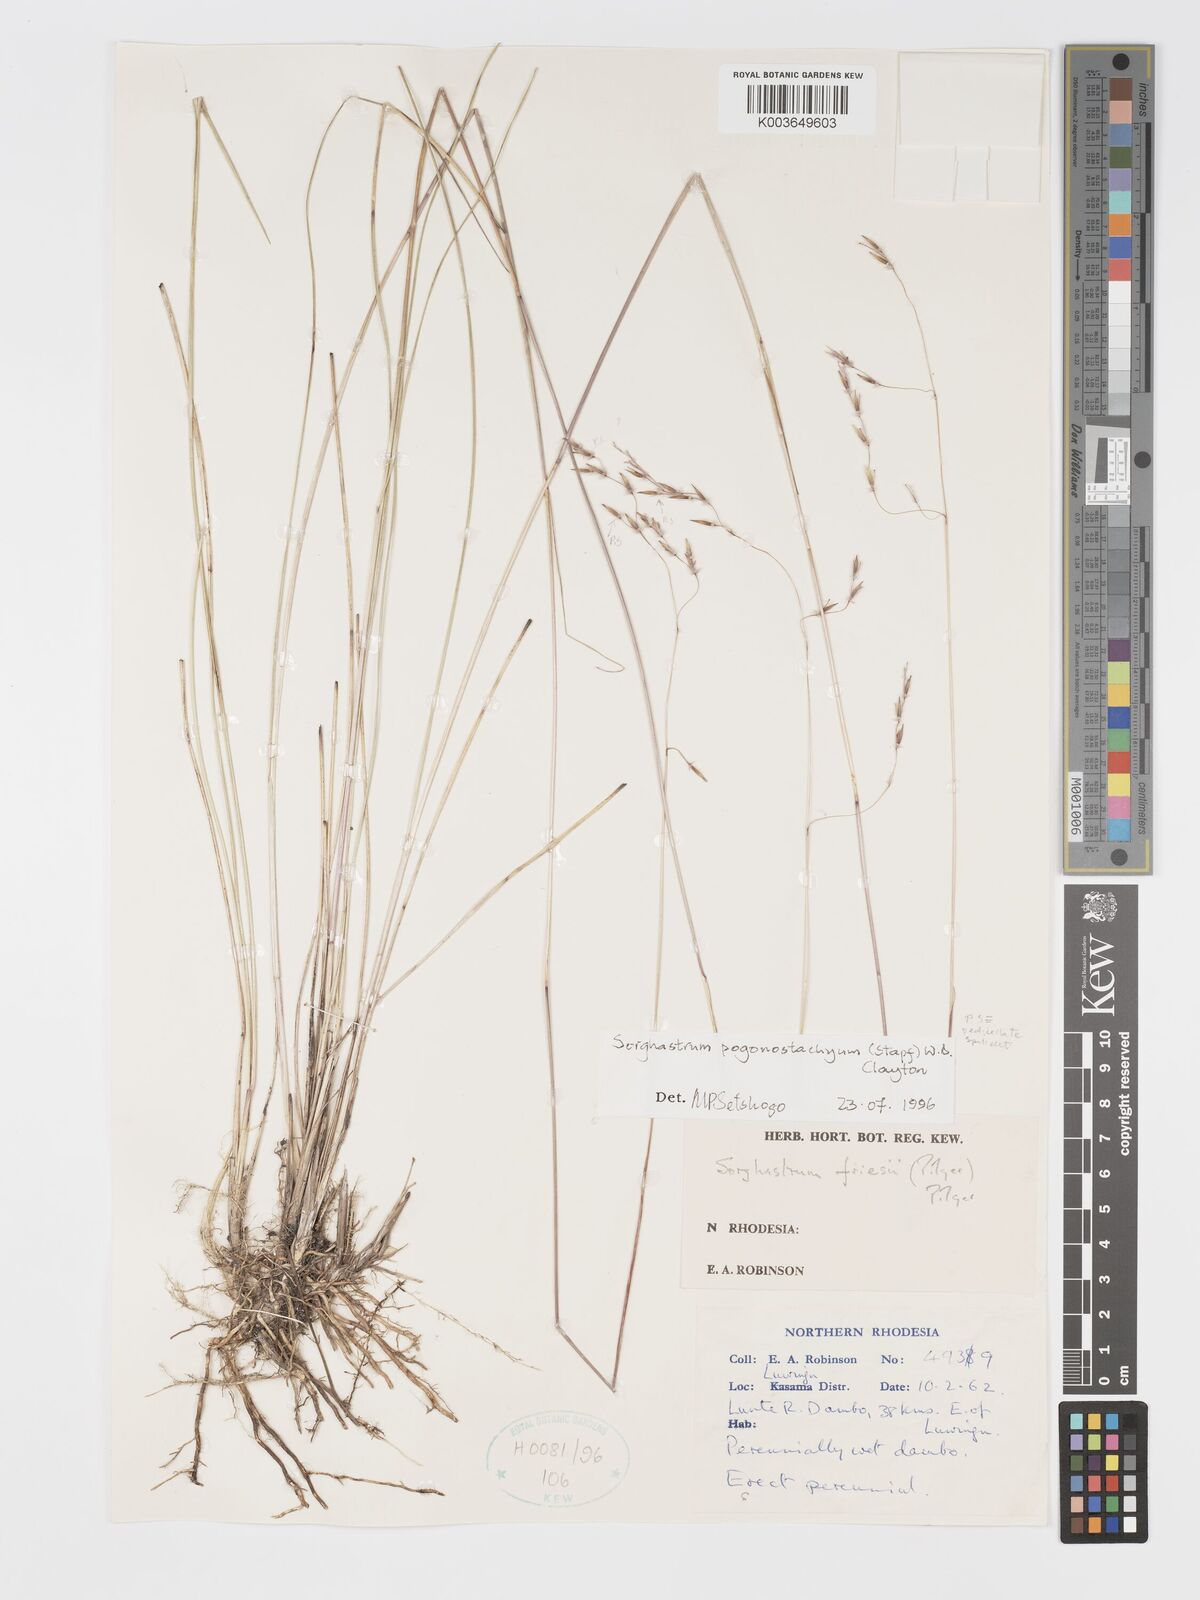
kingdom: Plantae
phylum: Tracheophyta
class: Liliopsida
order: Poales
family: Poaceae
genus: Sorghastrum
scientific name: Sorghastrum pogonostachyum
